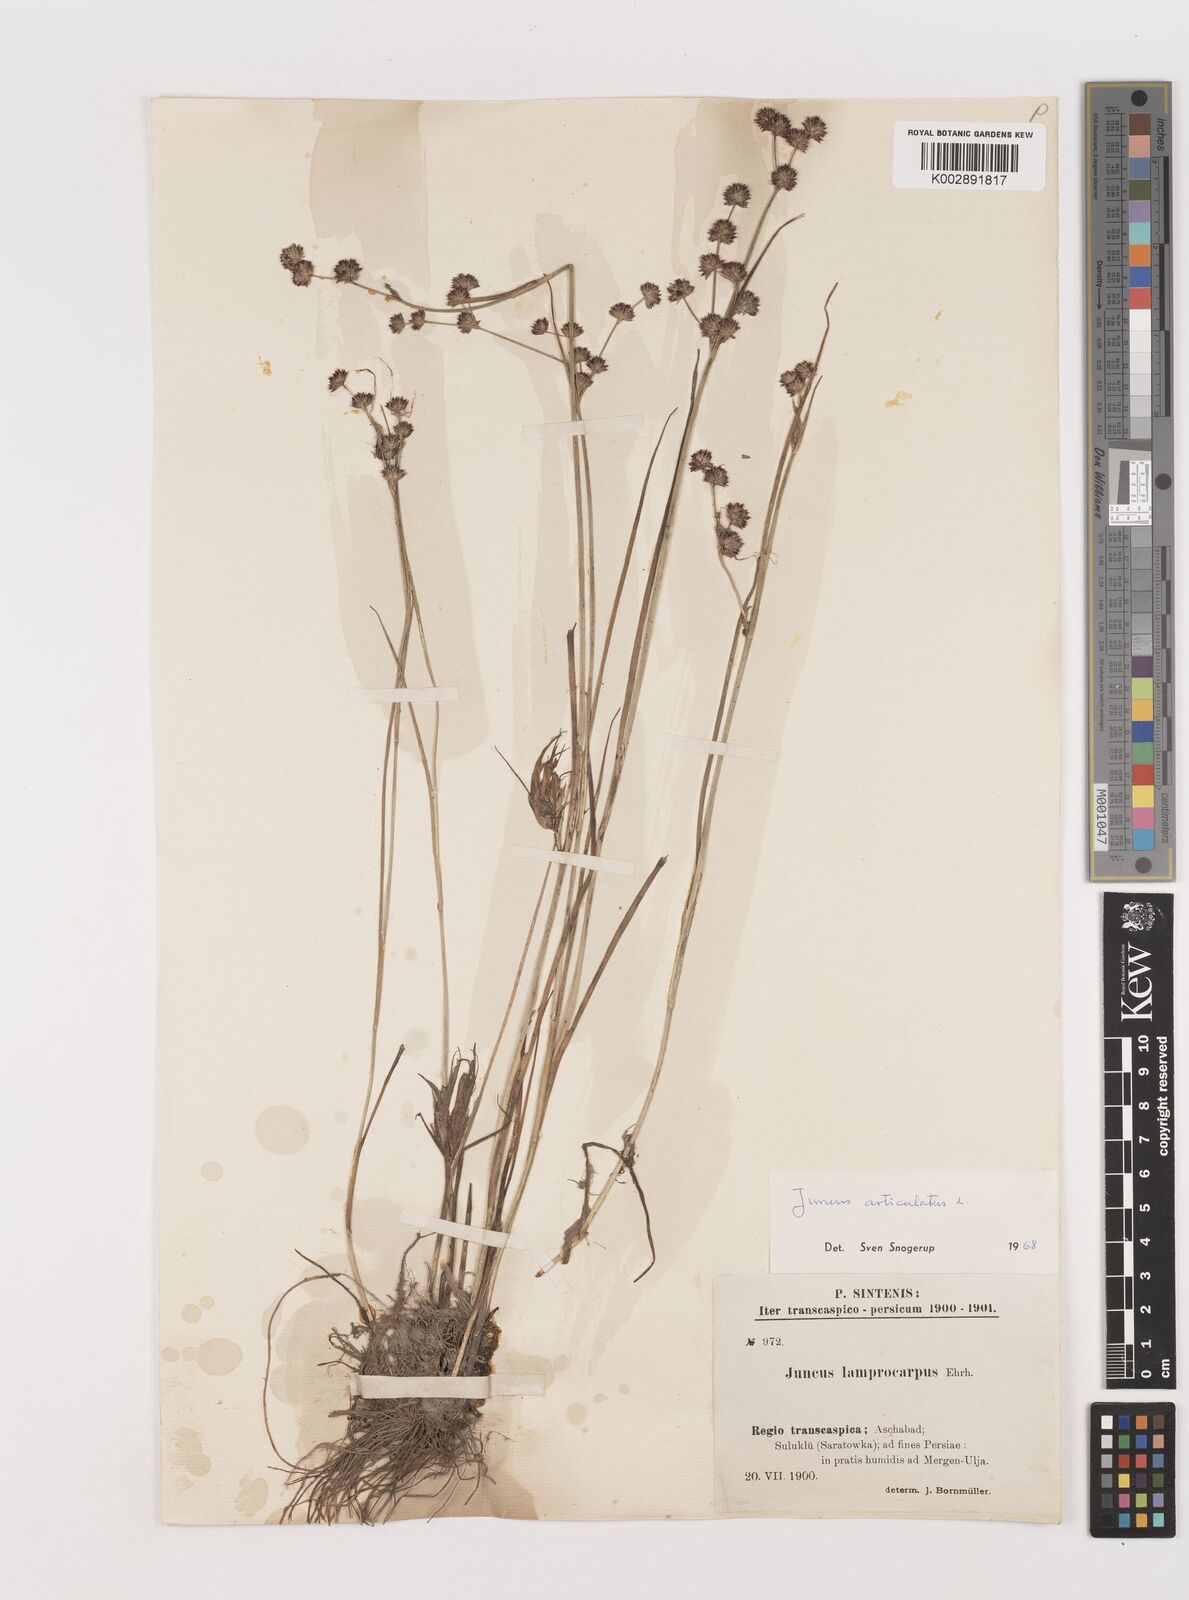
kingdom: Plantae
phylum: Tracheophyta
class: Liliopsida
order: Poales
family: Juncaceae
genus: Juncus
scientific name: Juncus articulatus
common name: Jointed rush
